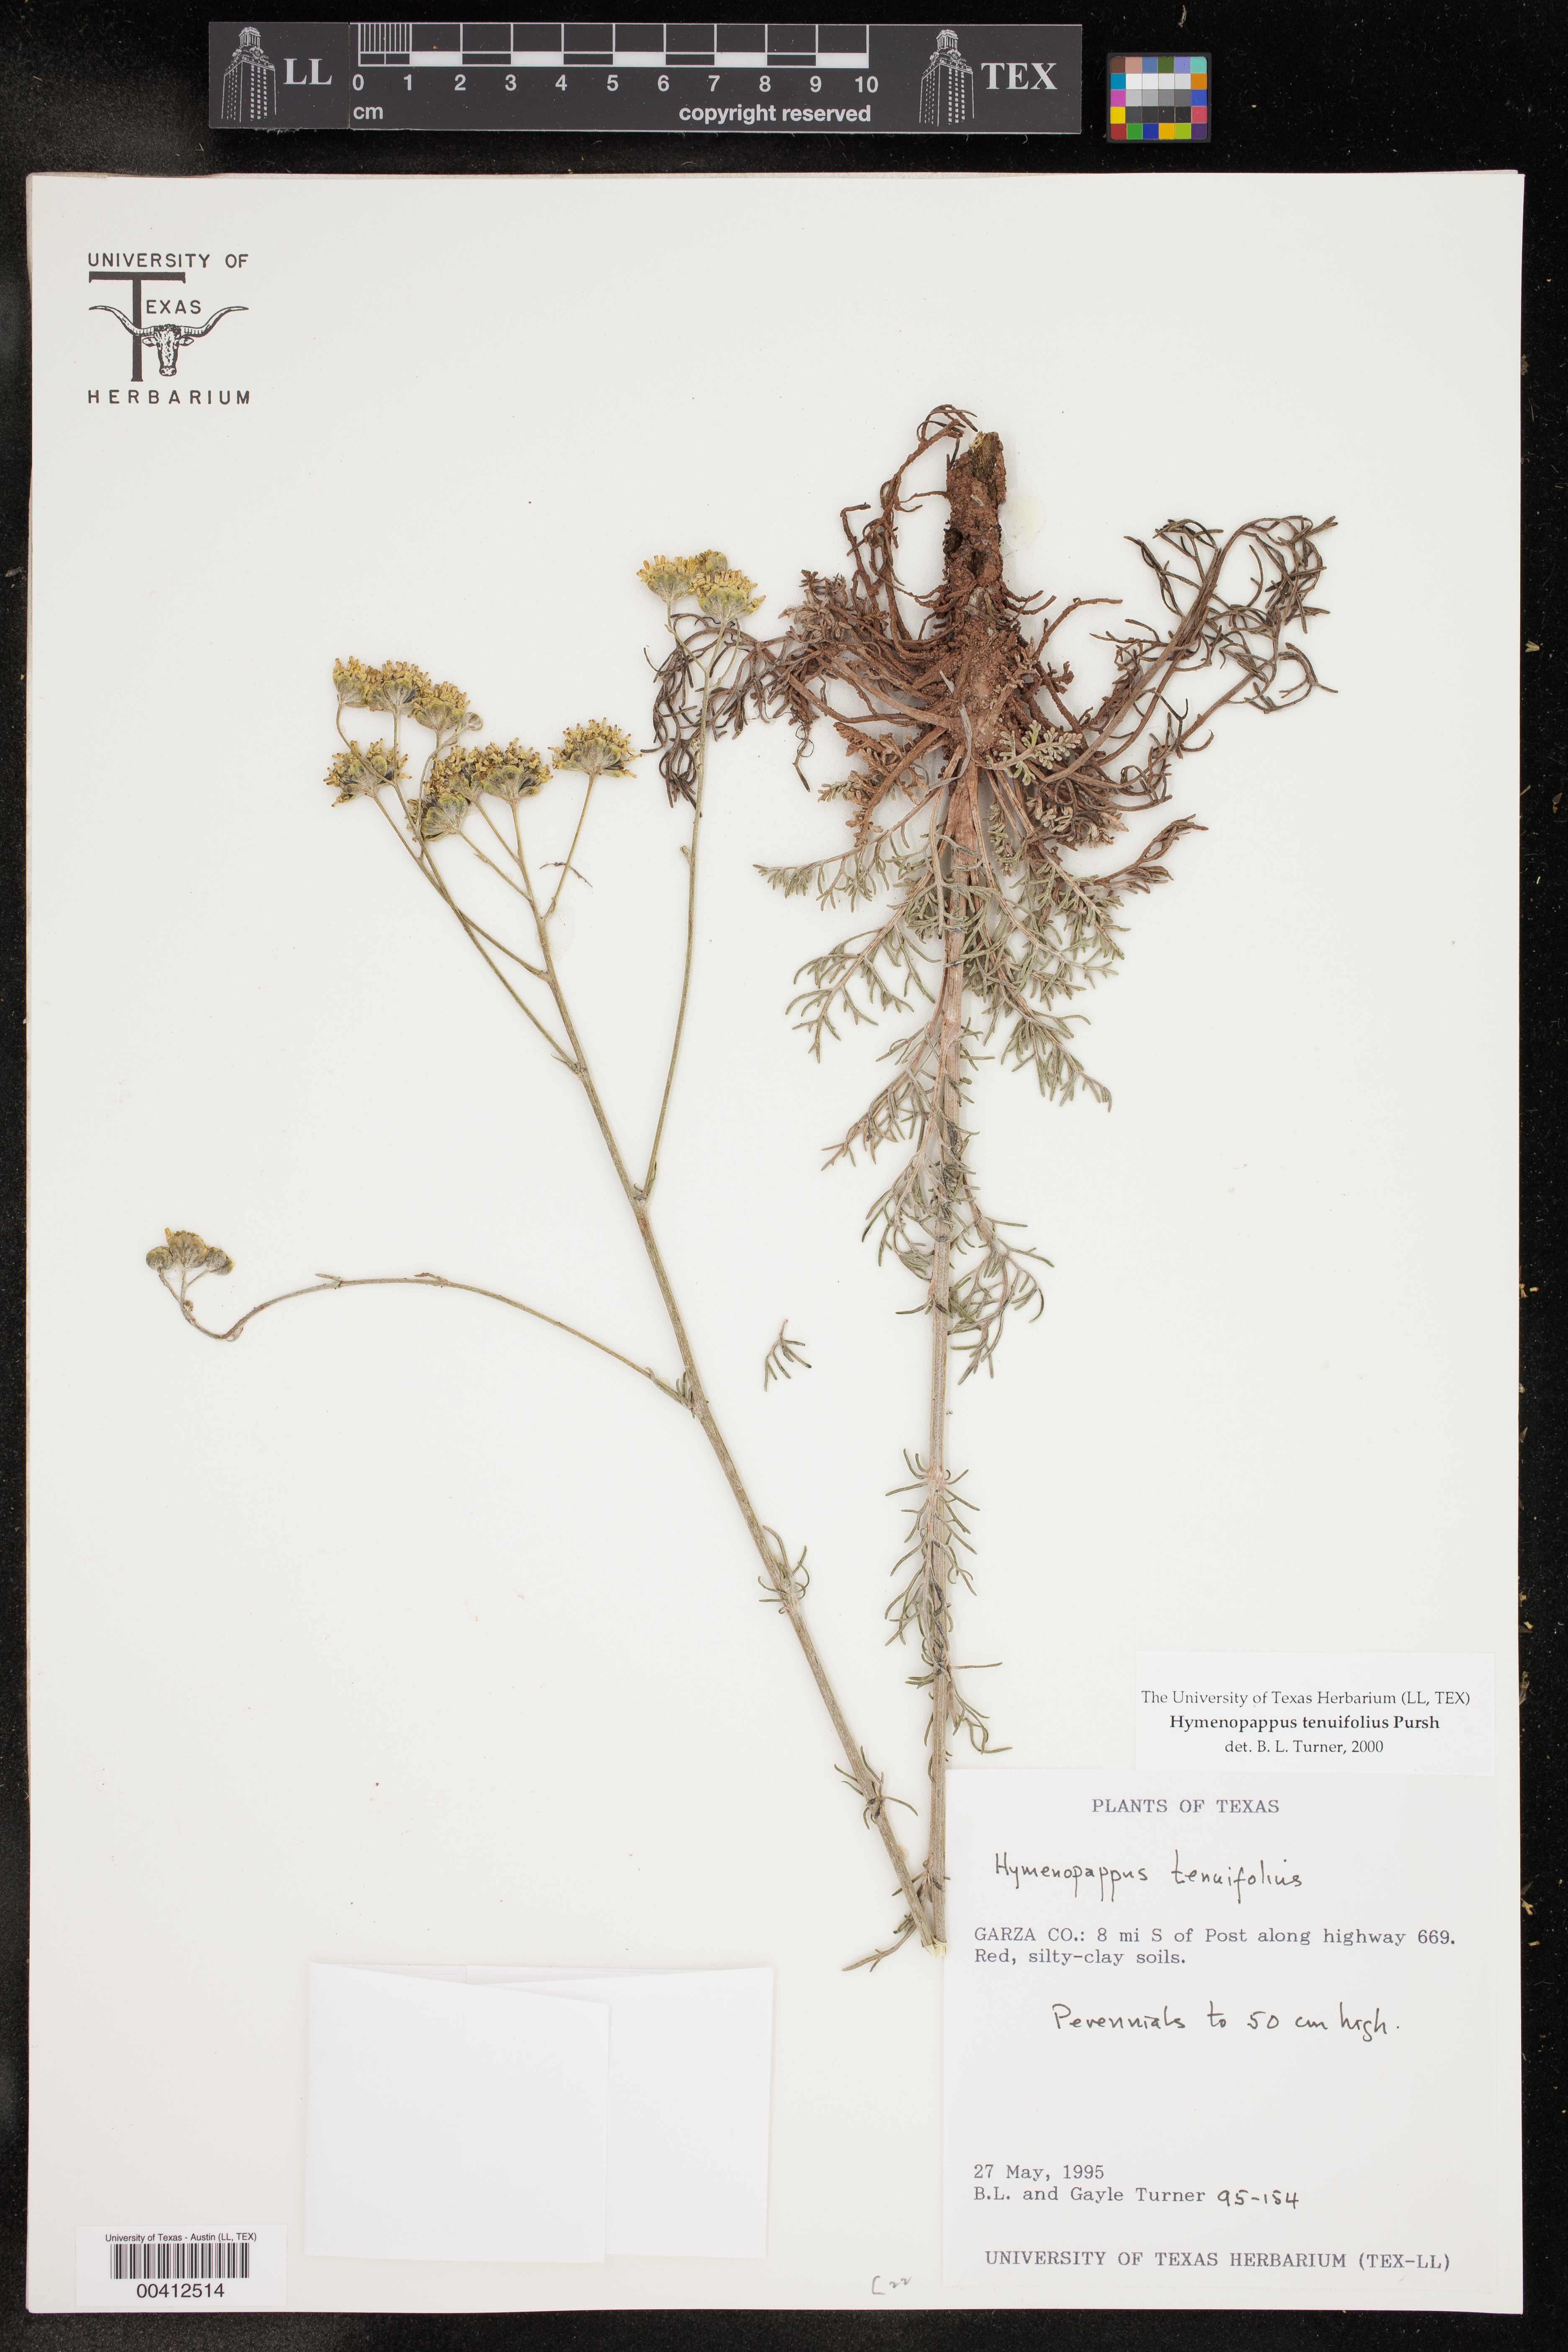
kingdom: Plantae
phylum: Tracheophyta
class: Magnoliopsida
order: Asterales
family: Asteraceae
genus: Hymenopappus
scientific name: Hymenopappus tenuifolius
